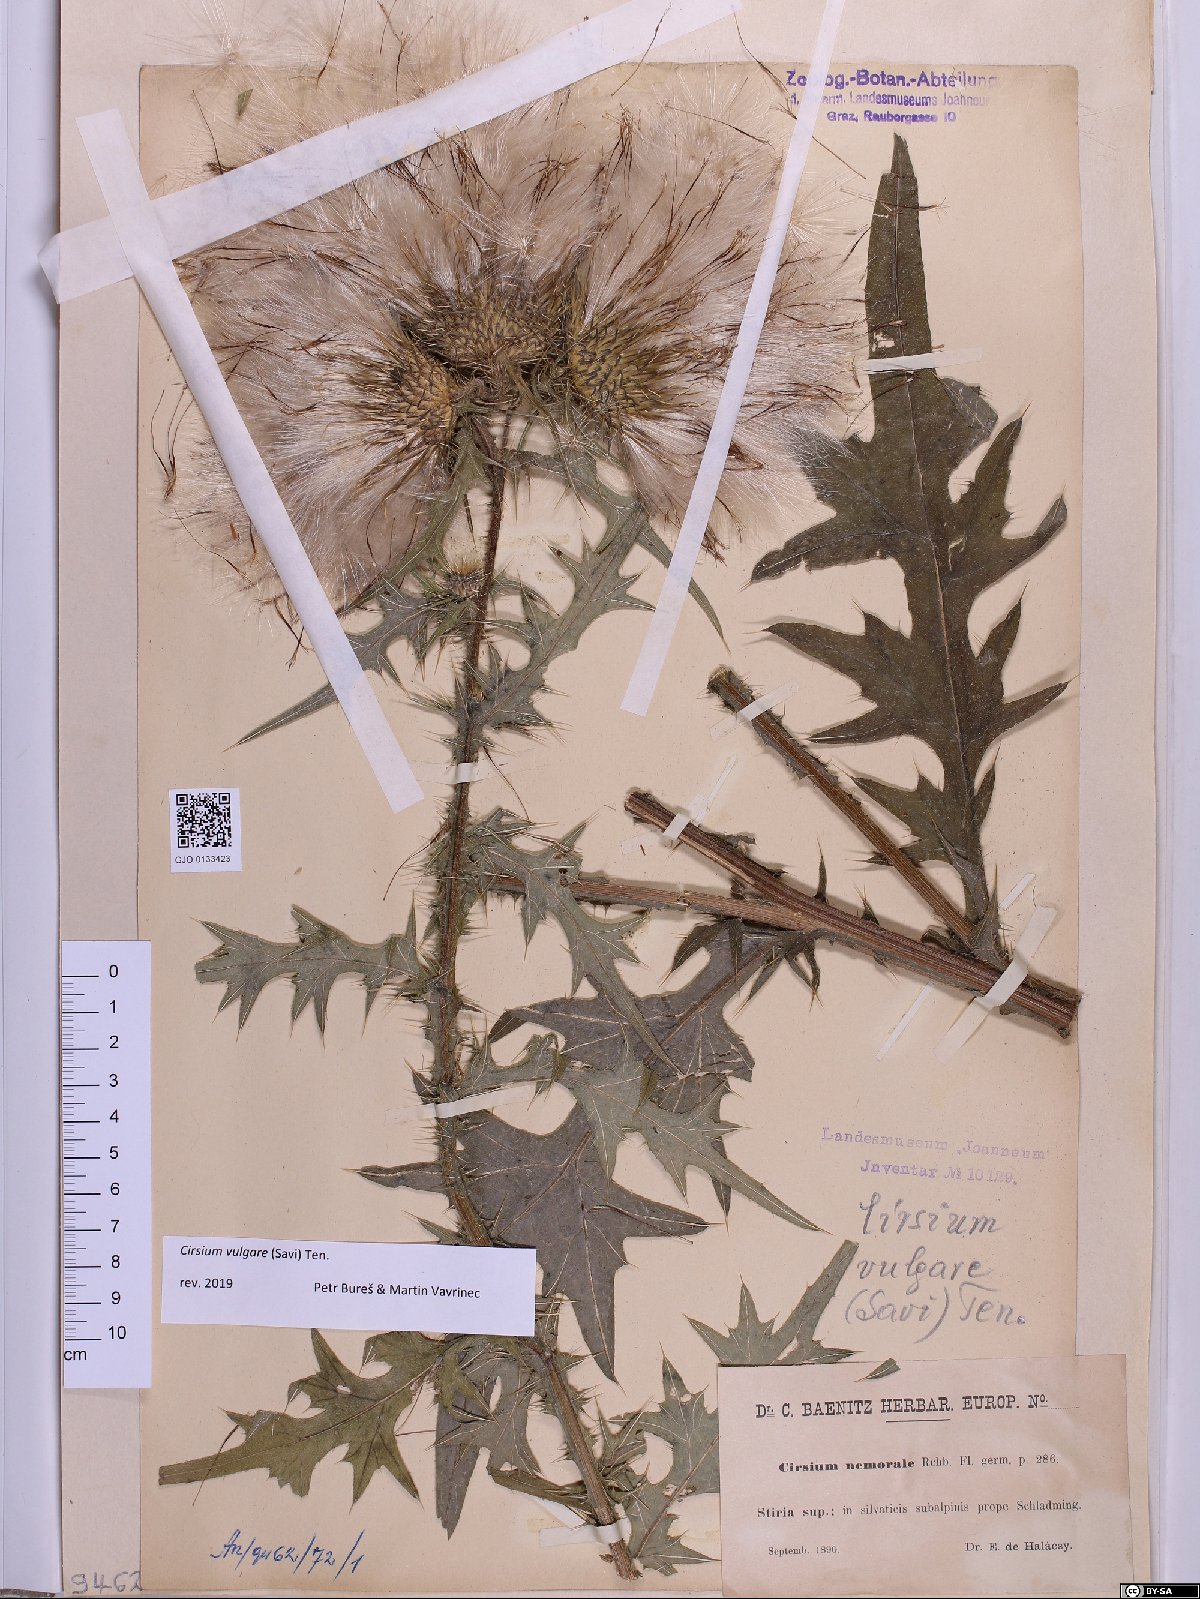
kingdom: Plantae
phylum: Tracheophyta
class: Magnoliopsida
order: Asterales
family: Asteraceae
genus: Cirsium
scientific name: Cirsium vulgare
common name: Bull thistle
